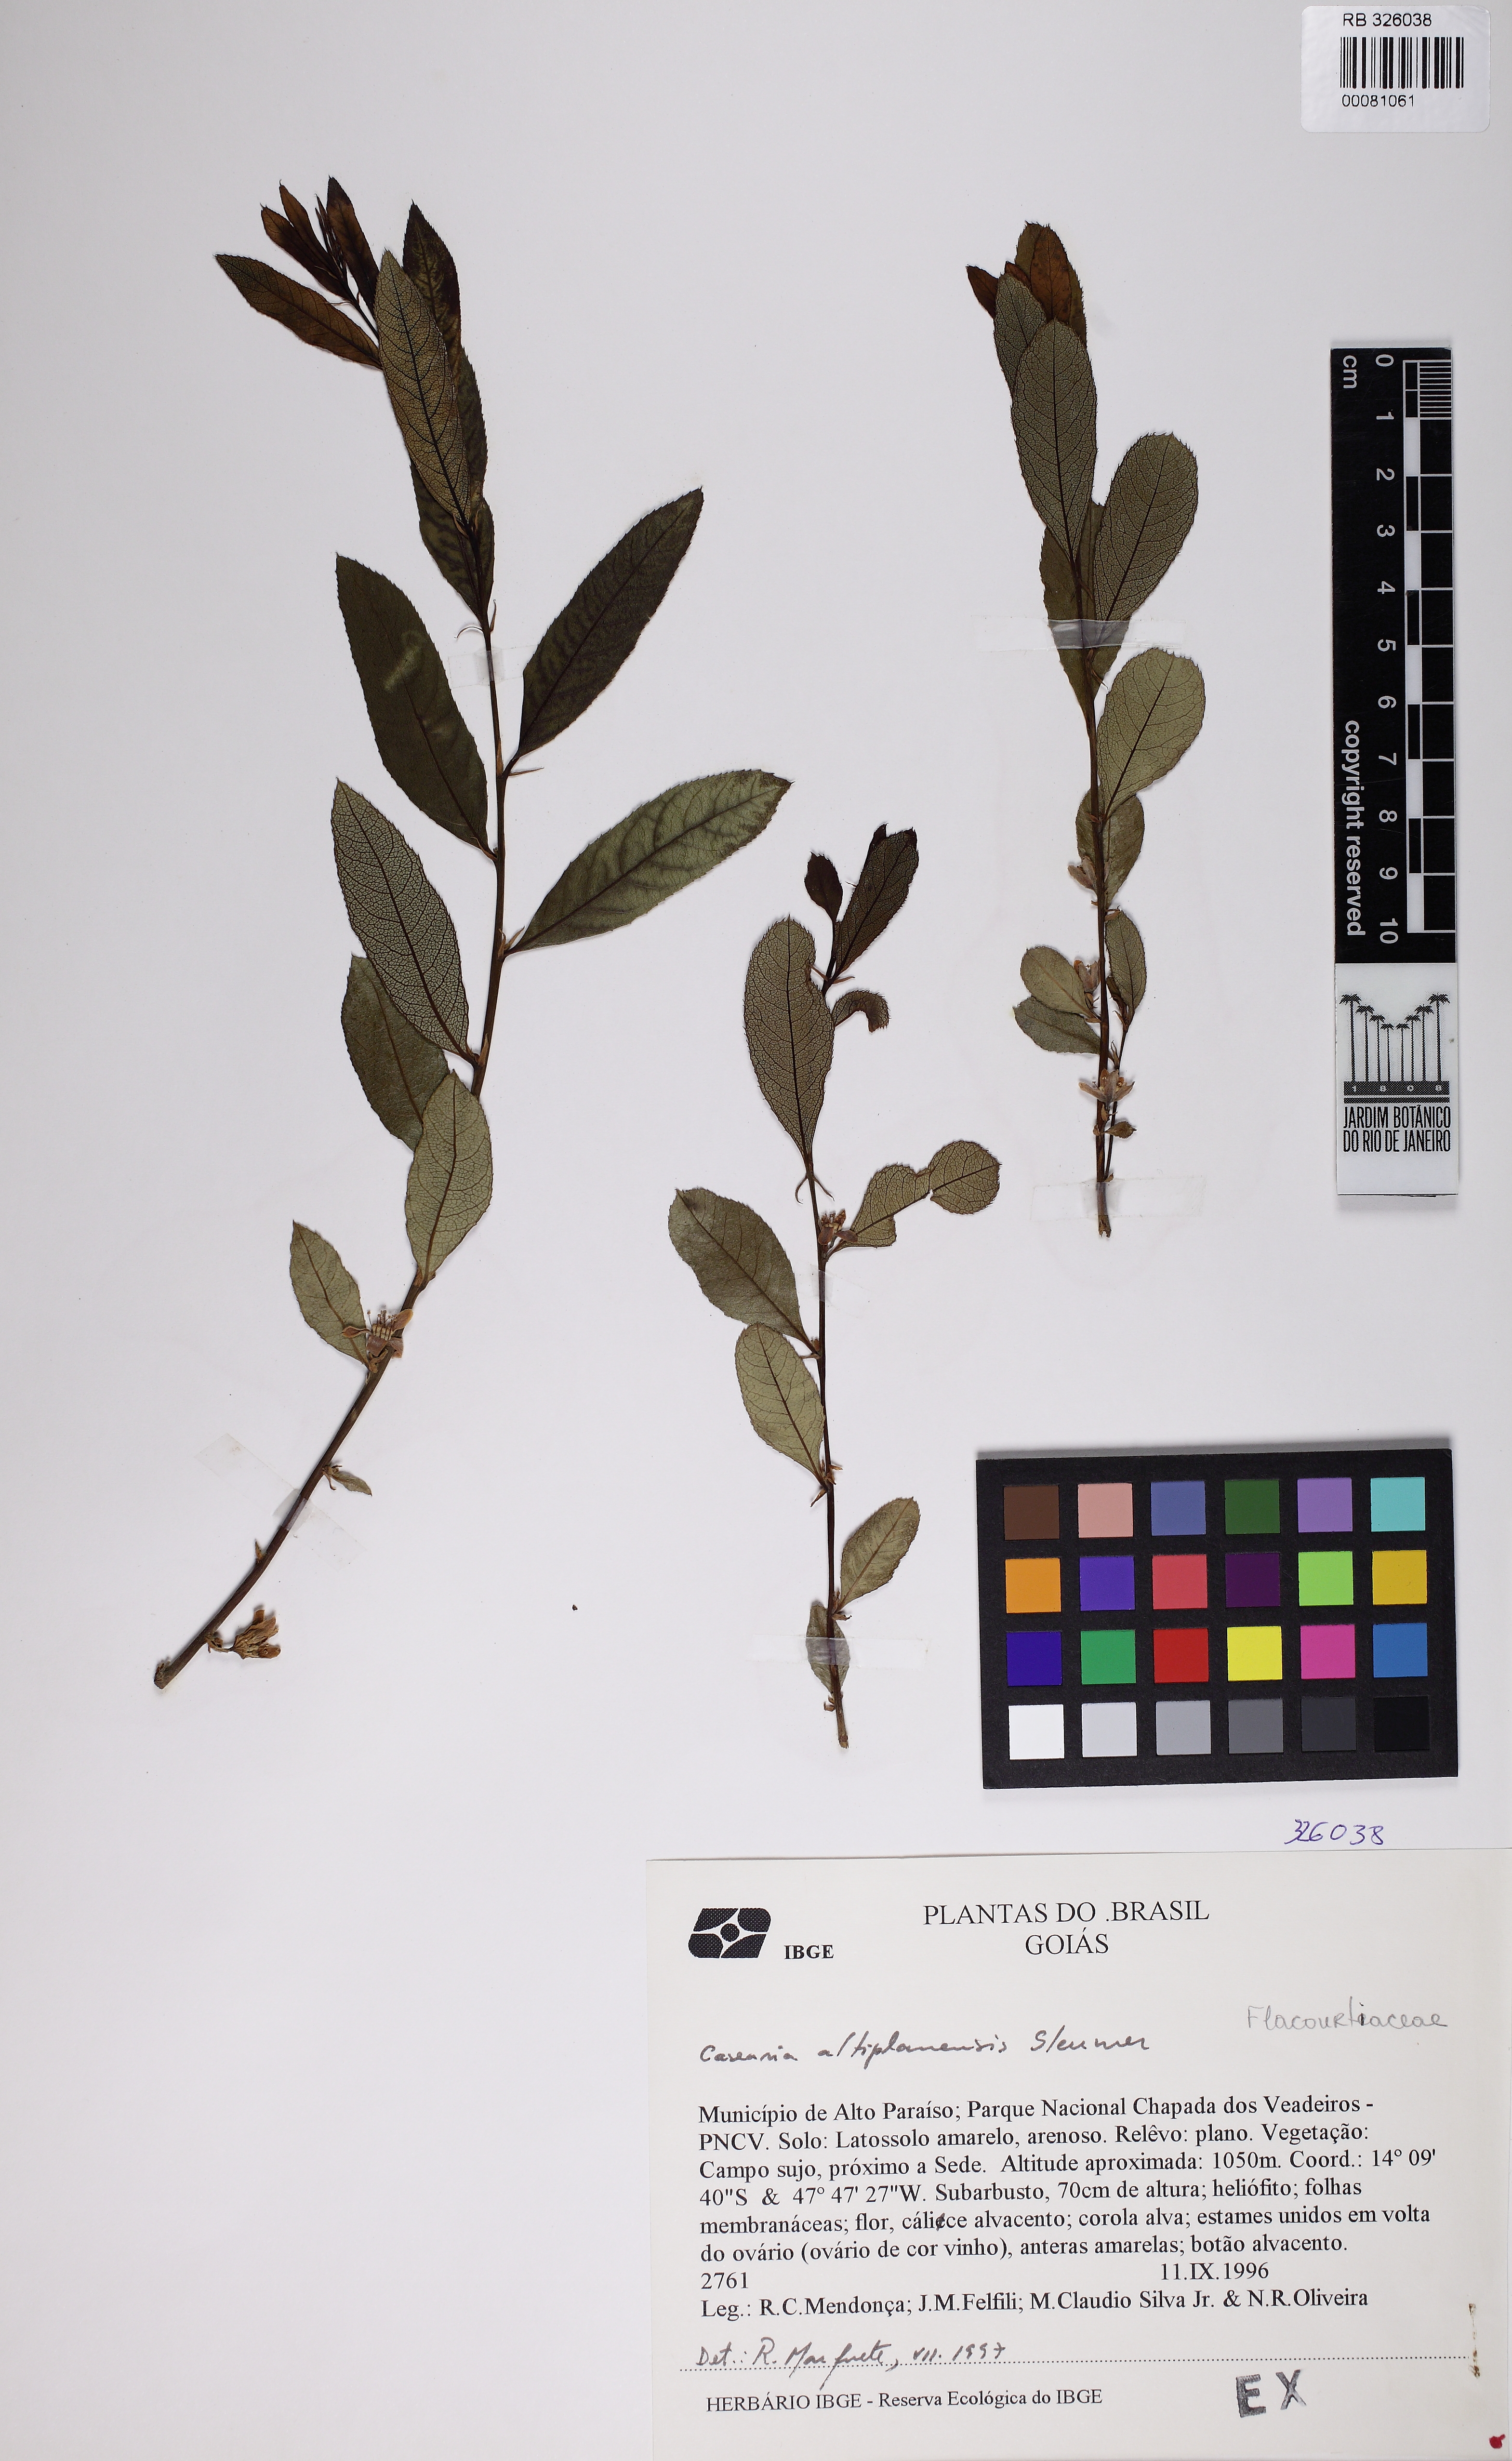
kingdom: Plantae
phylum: Tracheophyta
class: Magnoliopsida
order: Malpighiales
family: Salicaceae
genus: Casearia
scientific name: Casearia altiplanensis
